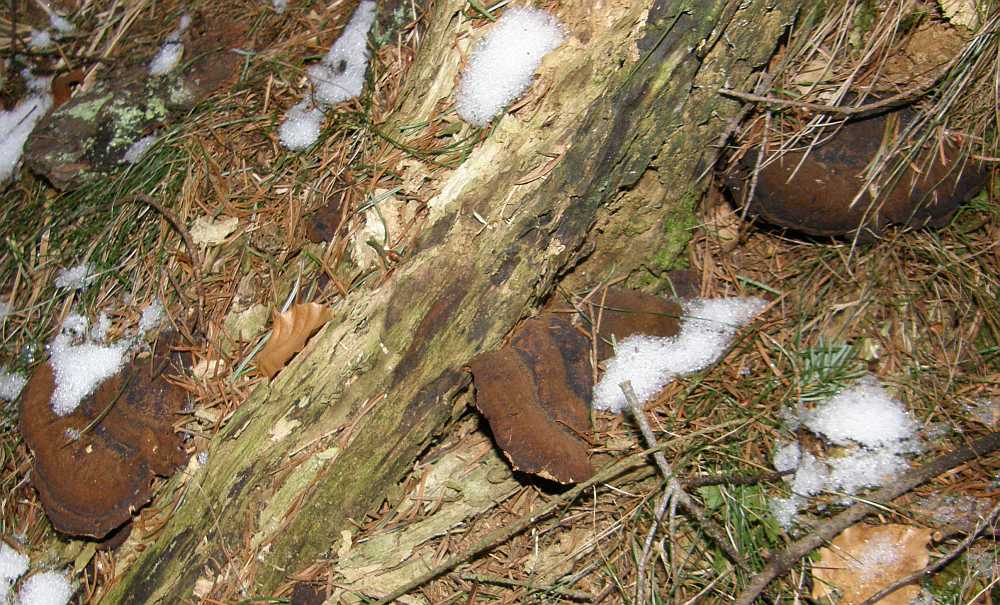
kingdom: Fungi
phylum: Basidiomycota
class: Agaricomycetes
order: Polyporales
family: Ischnodermataceae
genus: Ischnoderma
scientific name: Ischnoderma benzoinum
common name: gran-tjæreporesvamp
